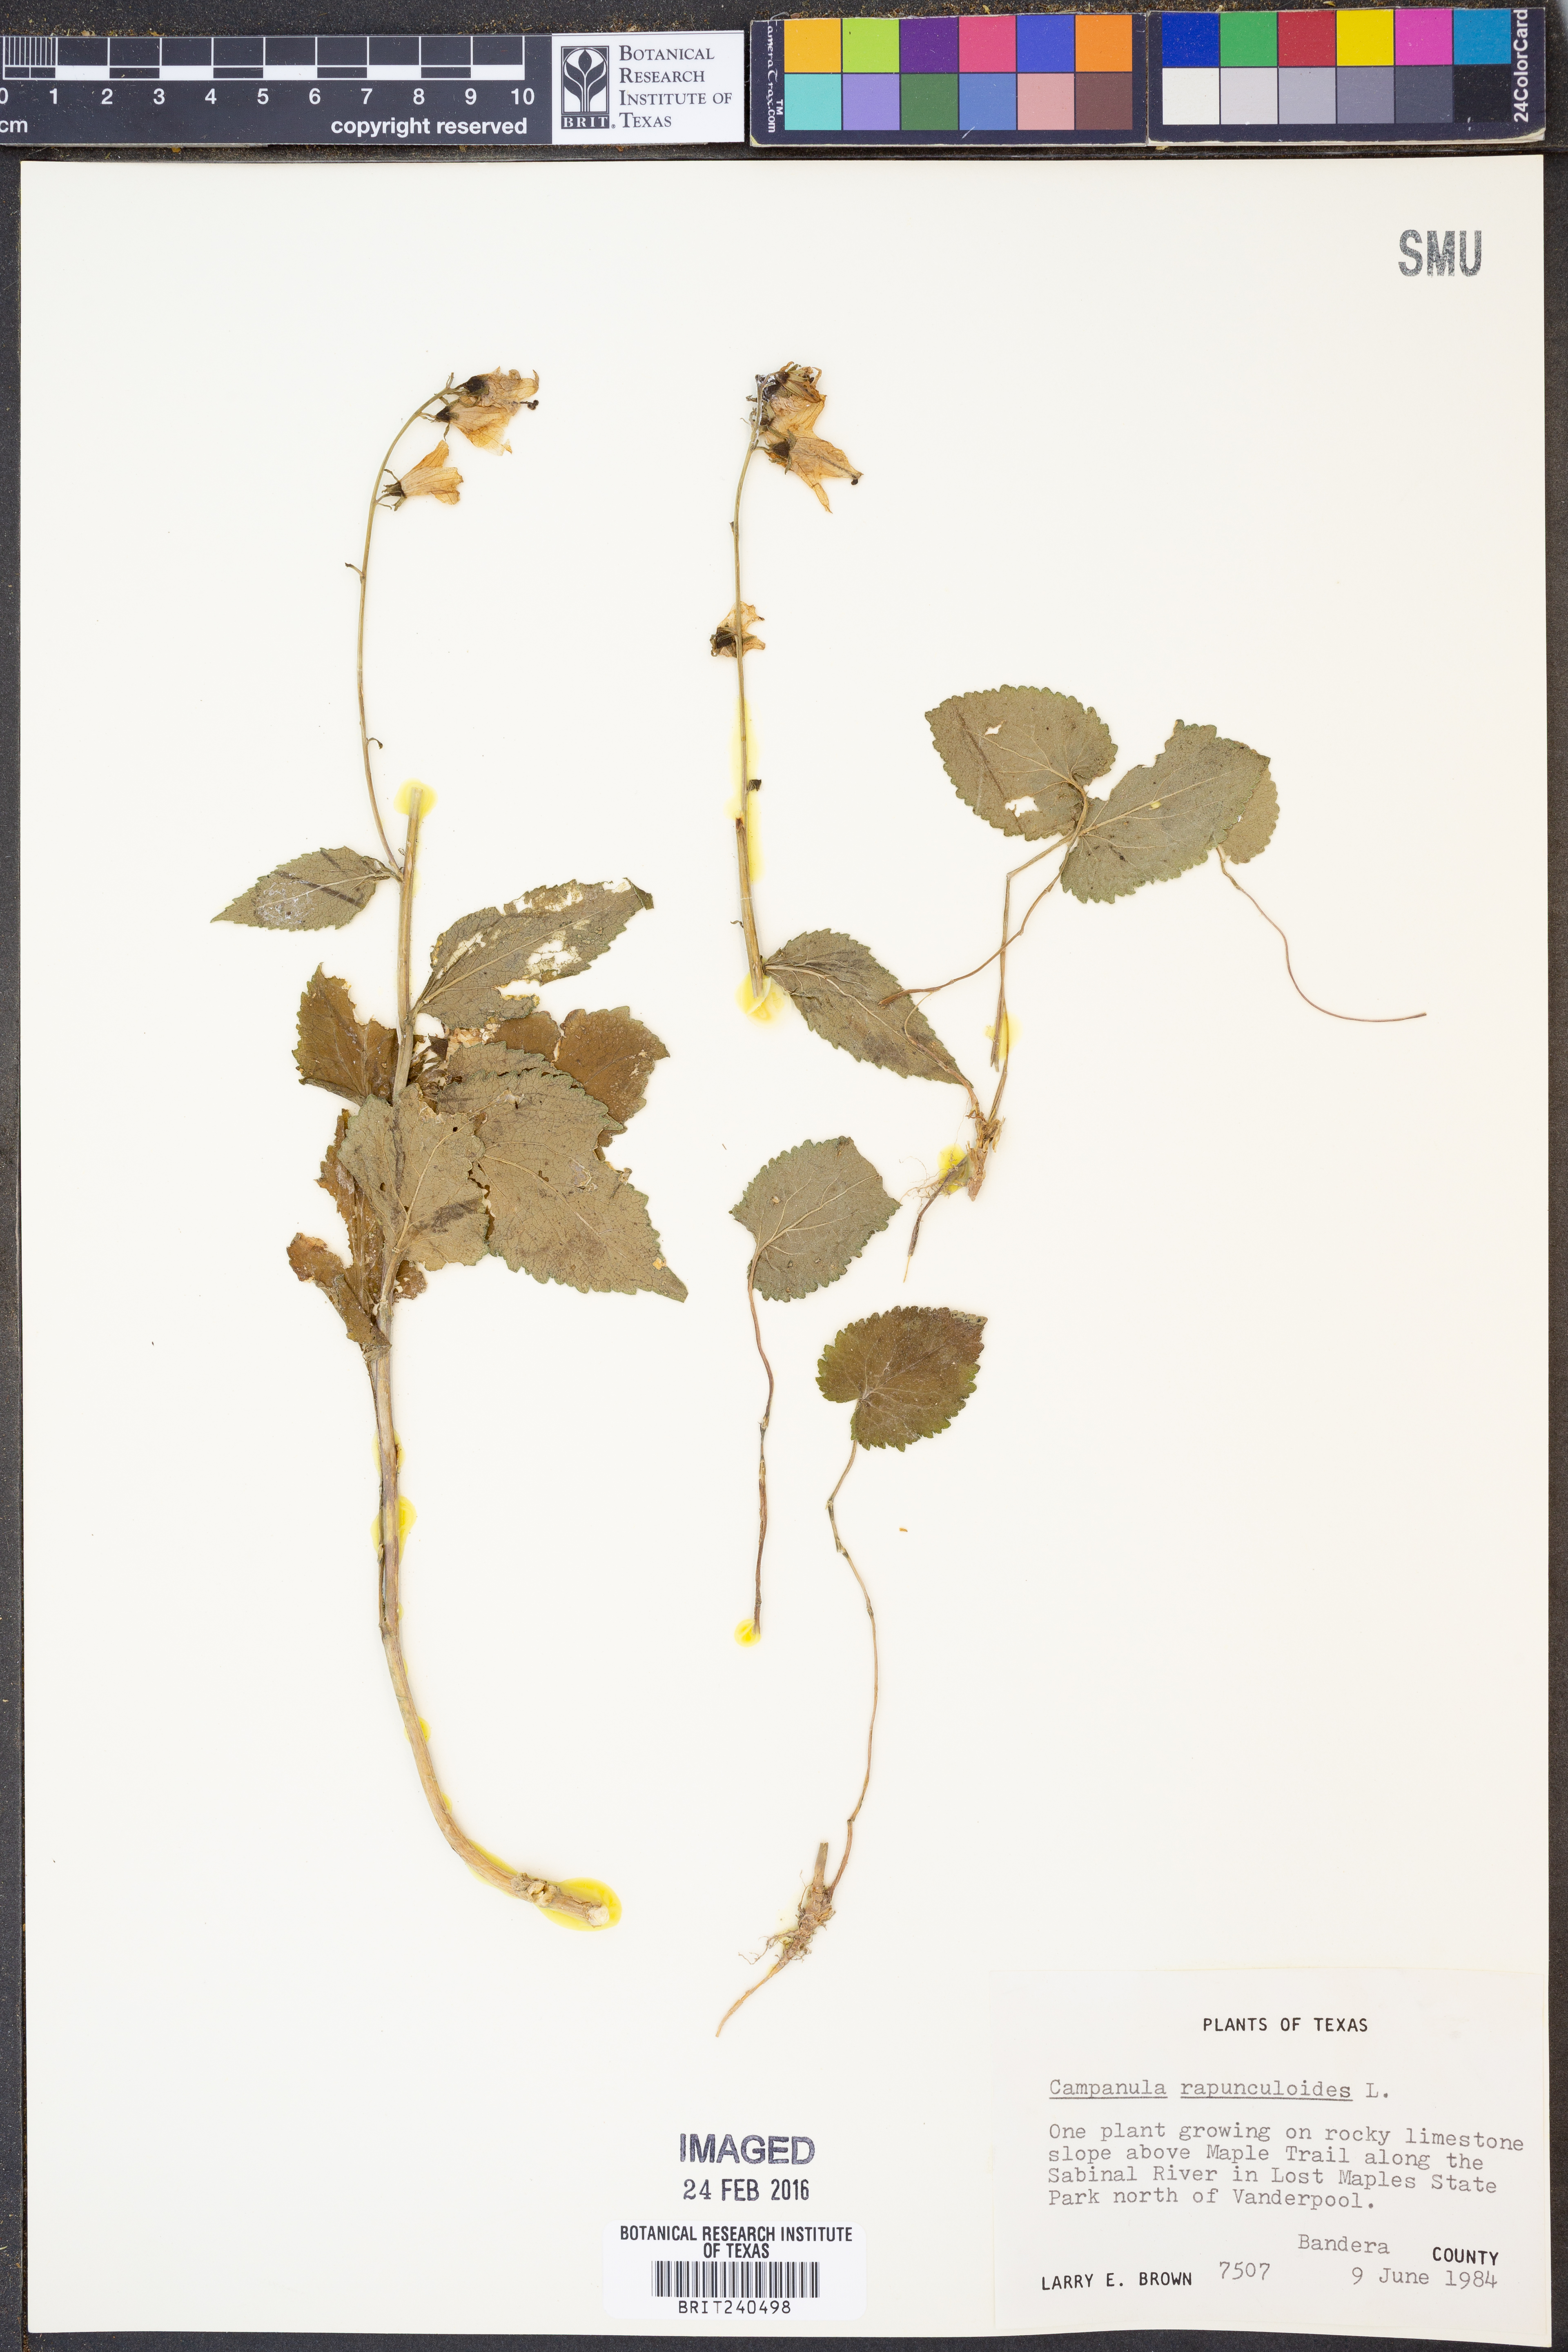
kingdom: Plantae
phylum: Tracheophyta
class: Magnoliopsida
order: Asterales
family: Campanulaceae
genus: Campanula
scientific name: Campanula rapunculoides
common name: Creeping bellflower
